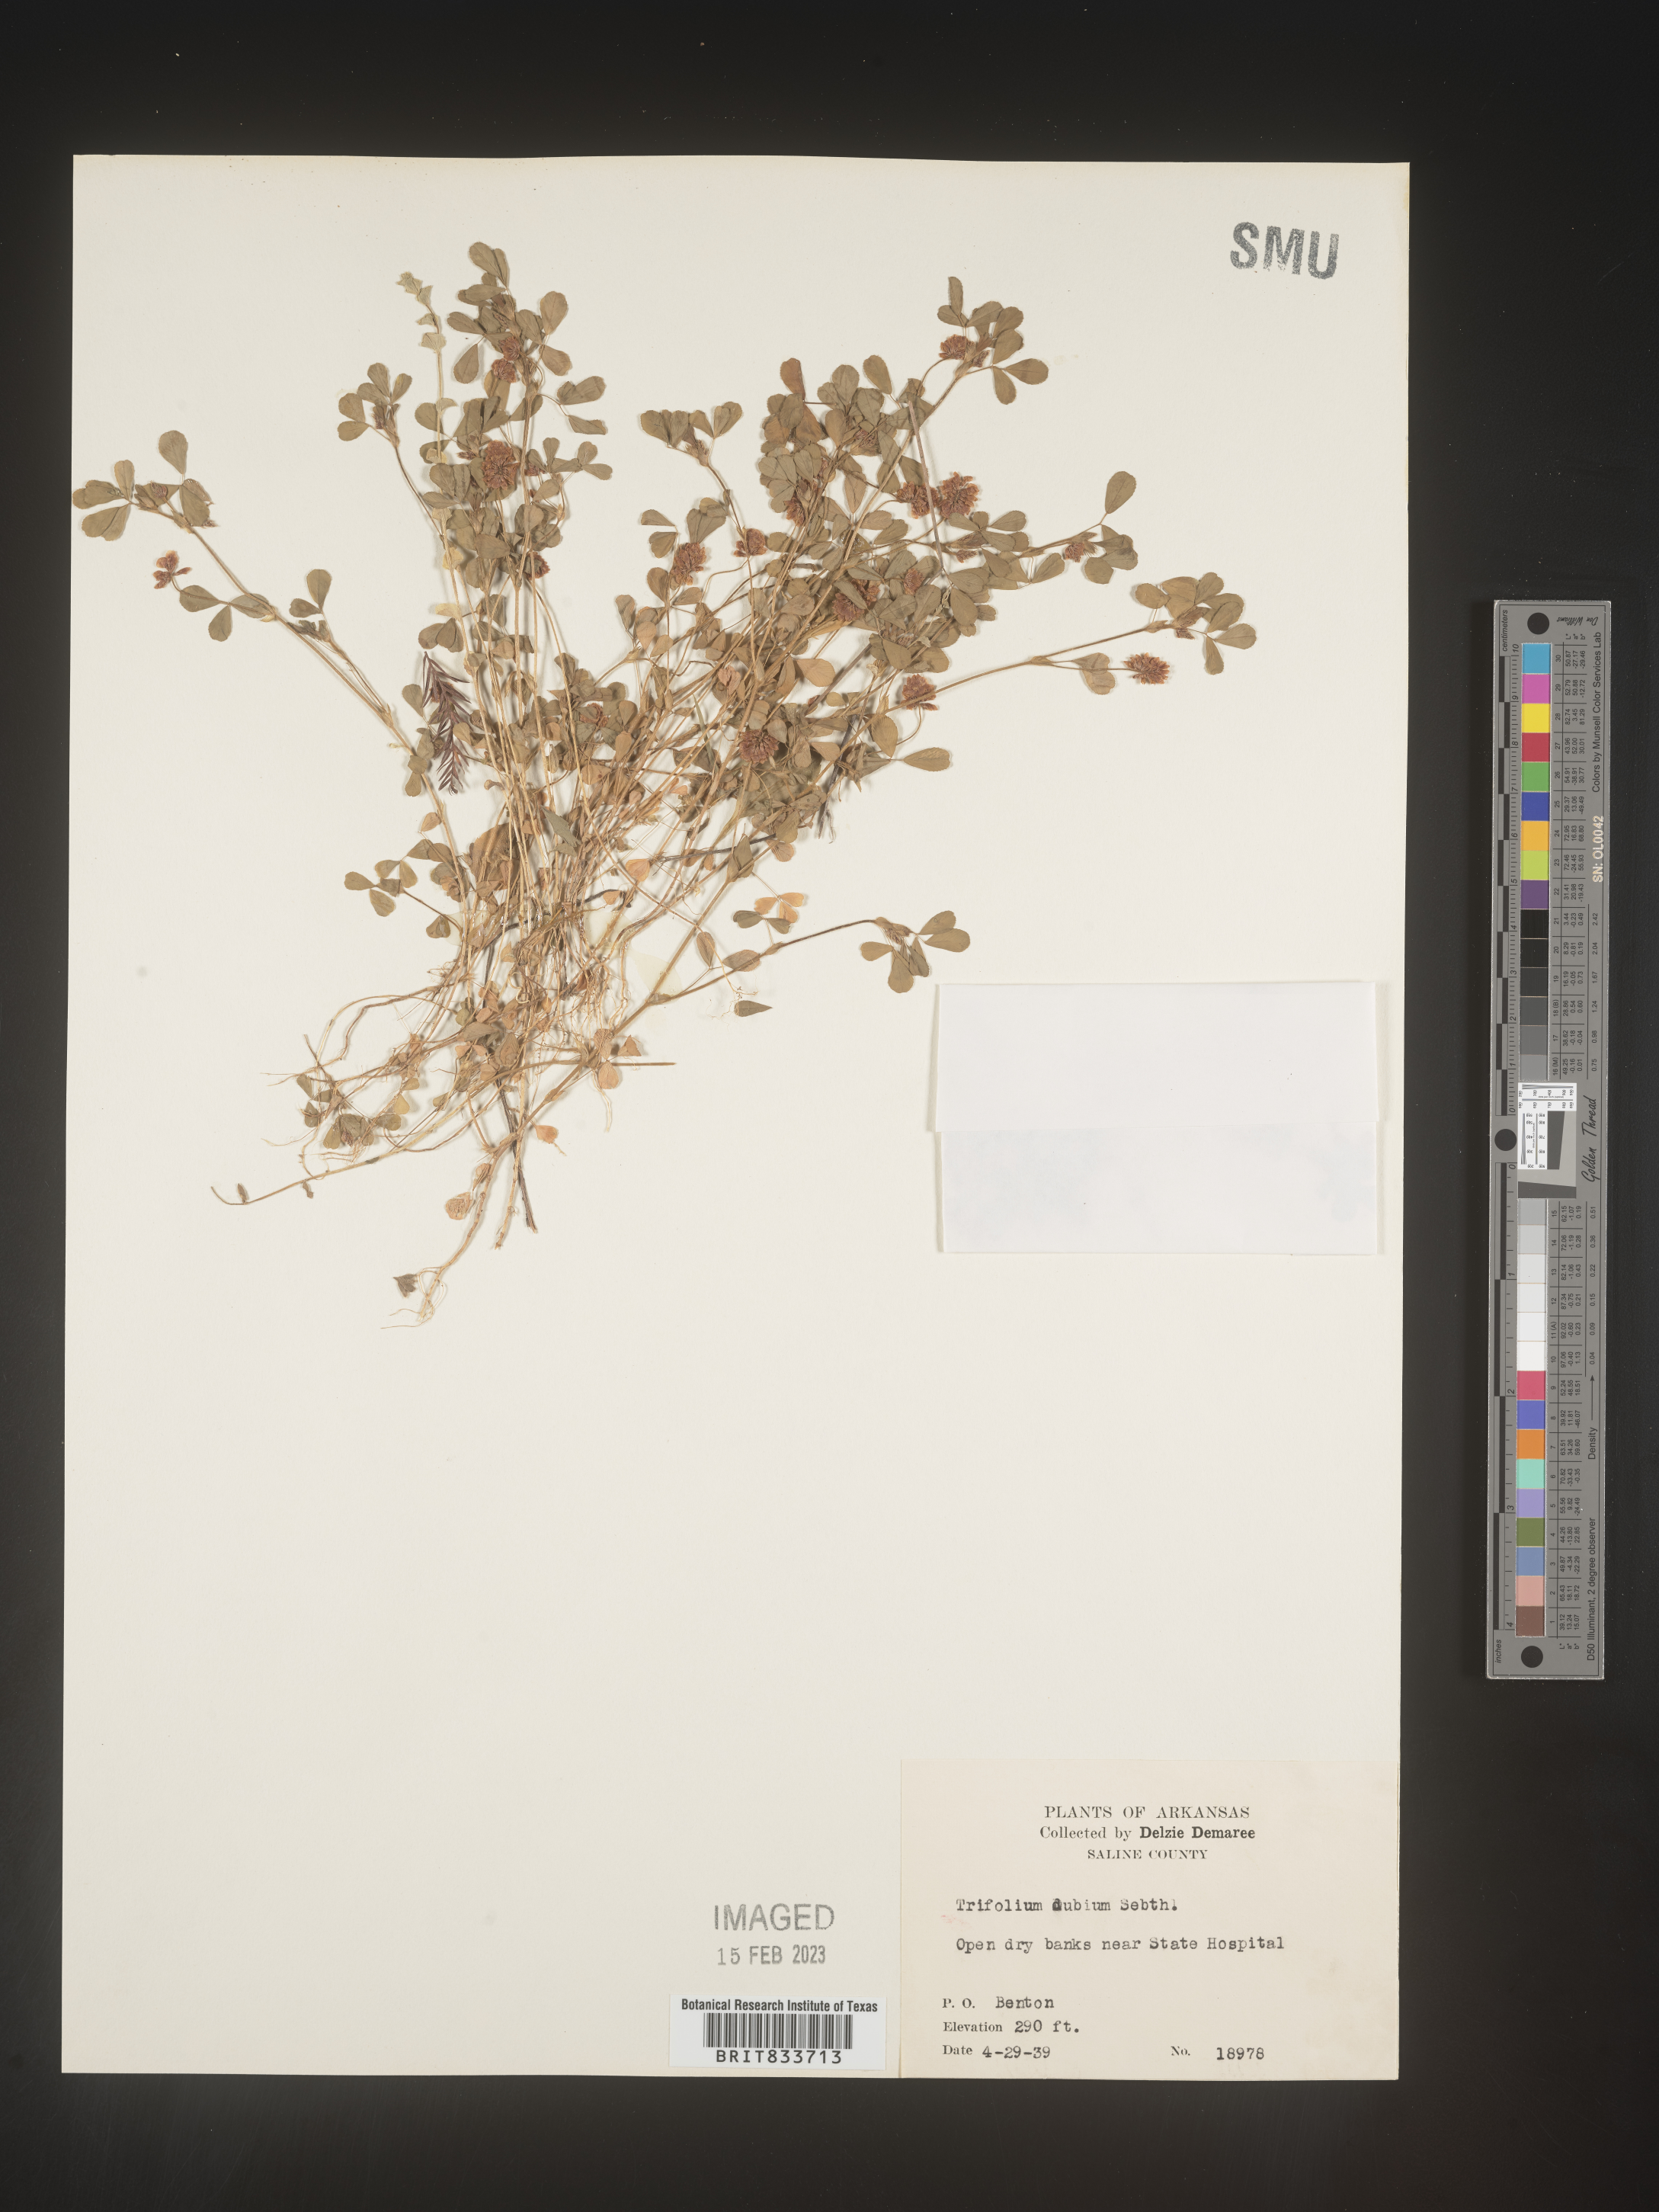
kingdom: Plantae
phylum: Tracheophyta
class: Magnoliopsida
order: Fabales
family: Fabaceae
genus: Trifolium
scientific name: Trifolium dubium
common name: Suckling clover
